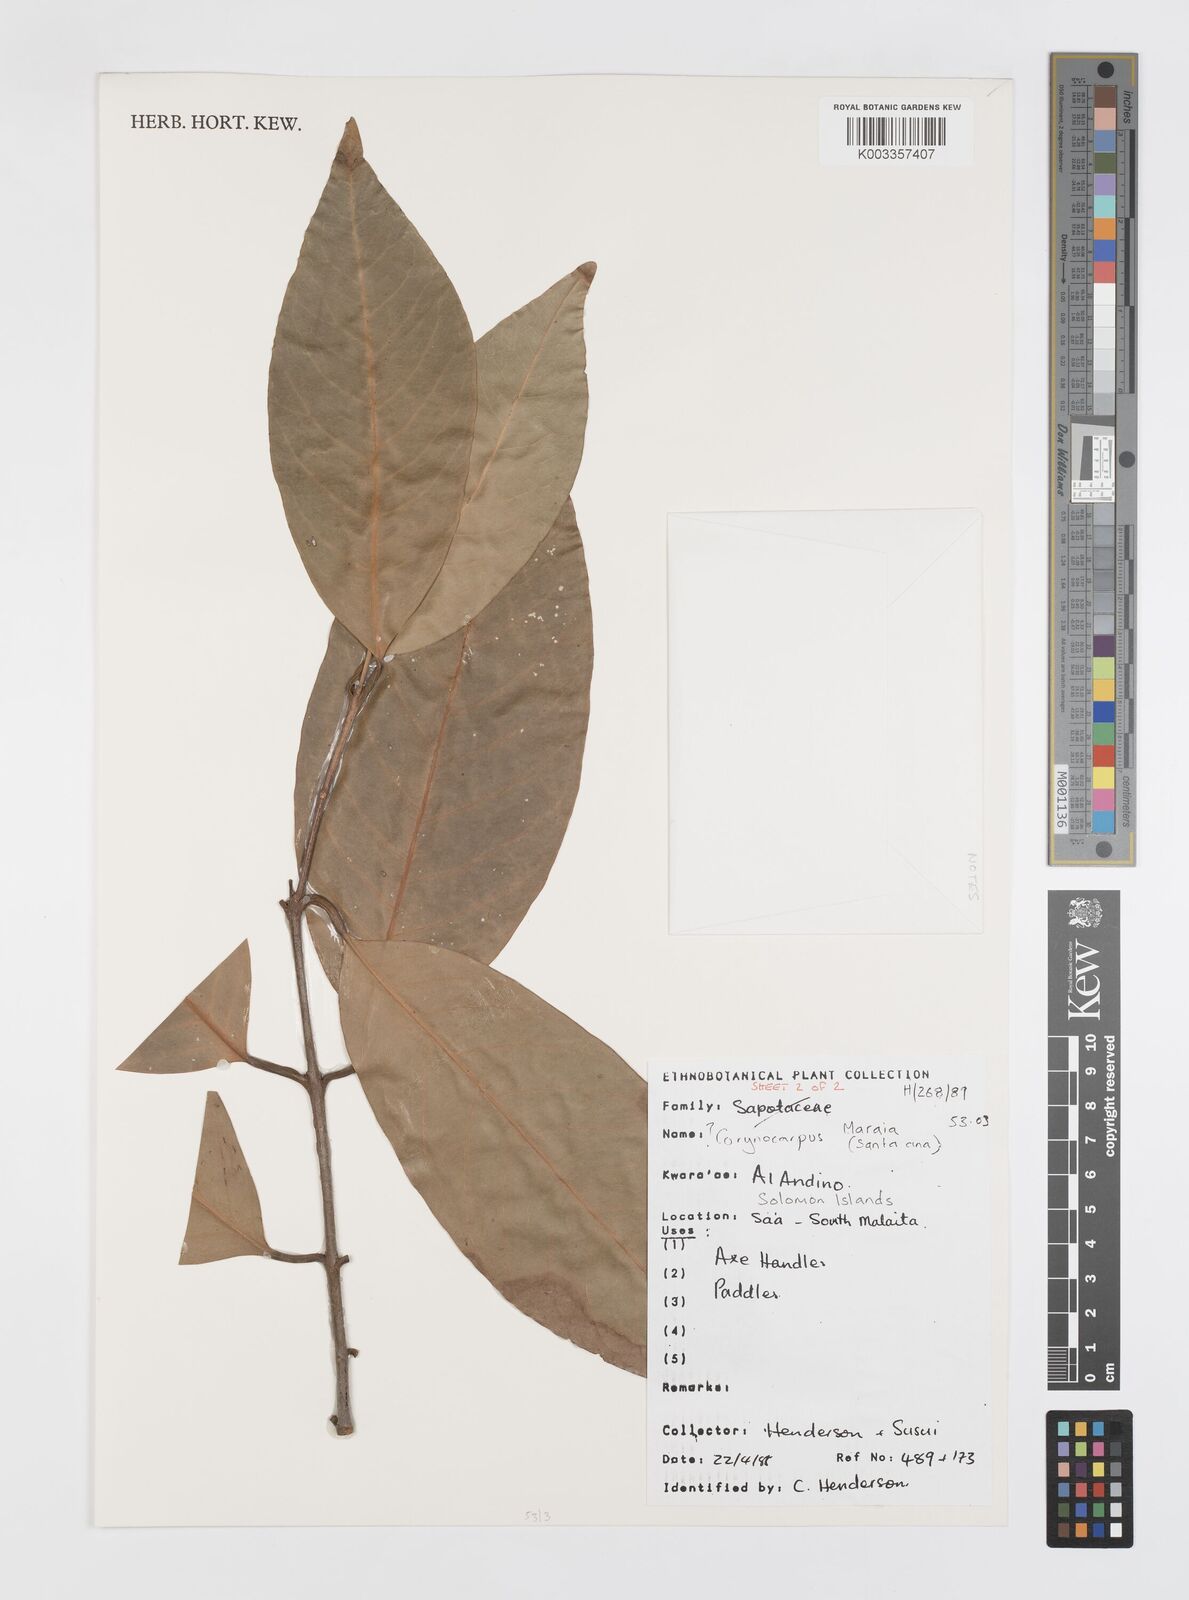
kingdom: Plantae
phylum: Tracheophyta
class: Magnoliopsida
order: Cucurbitales
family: Corynocarpaceae
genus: Corynocarpus
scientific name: Corynocarpus
